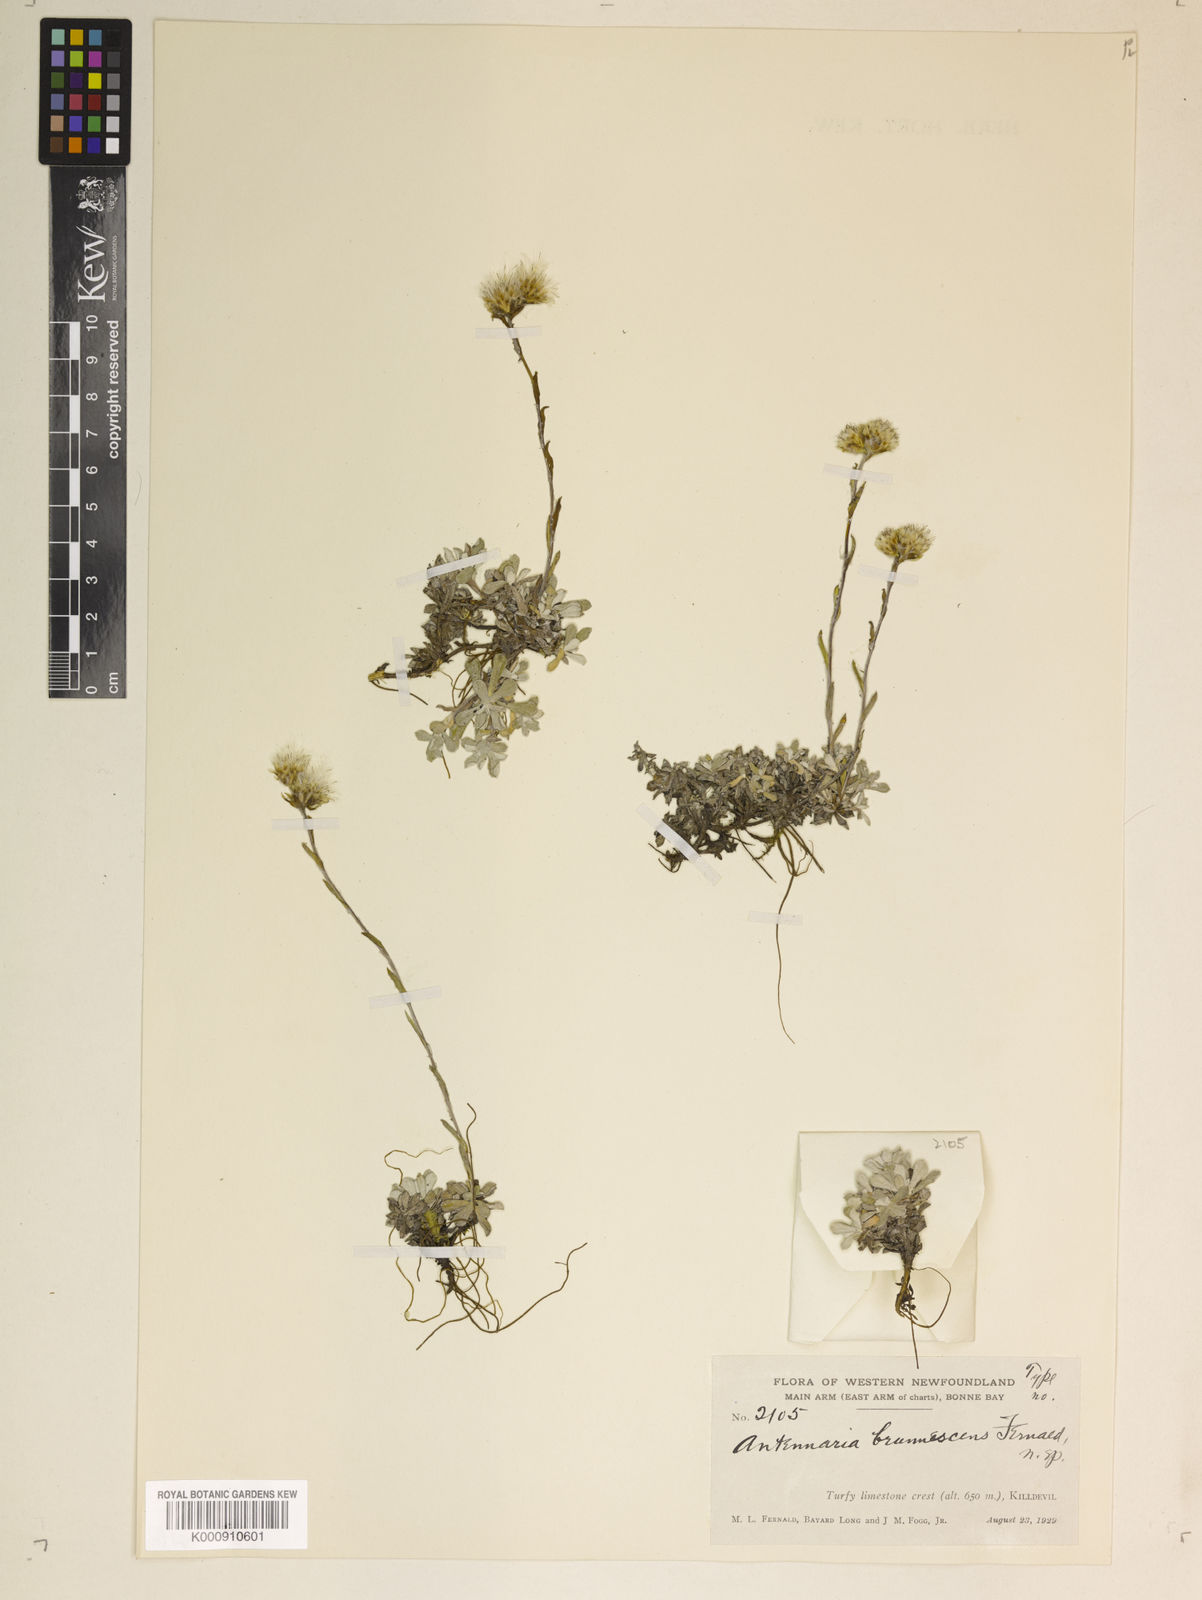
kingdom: Plantae
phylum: Tracheophyta
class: Magnoliopsida
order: Asterales
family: Asteraceae
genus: Antennaria
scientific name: Antennaria alpina
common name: Alpine pussytoes
